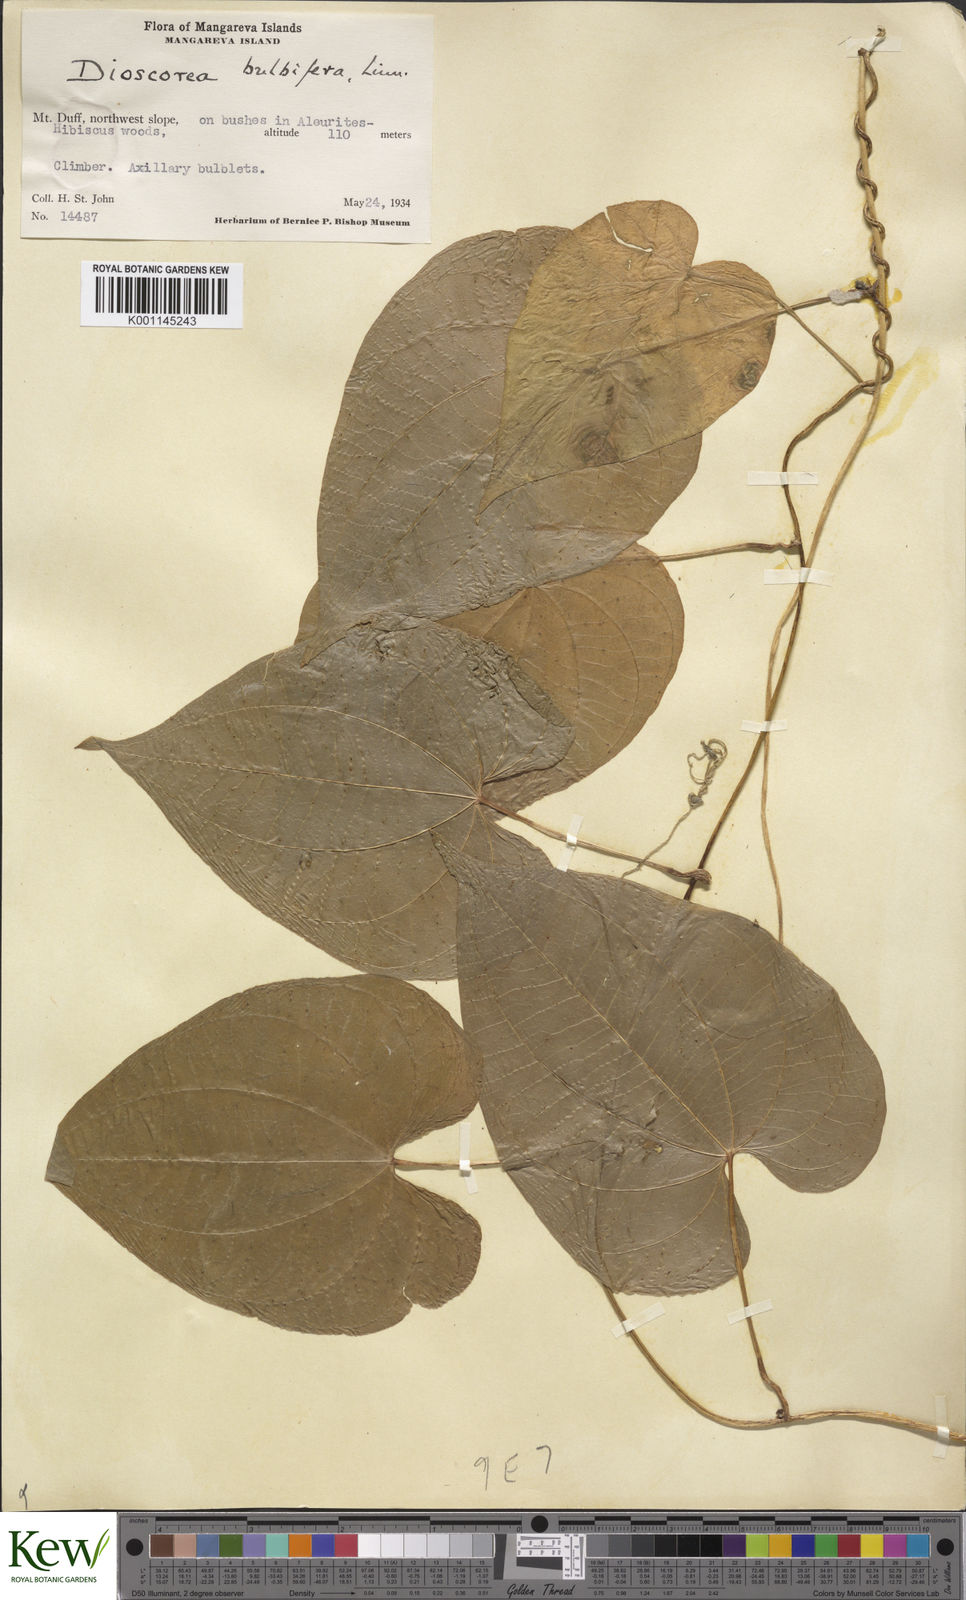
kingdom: Plantae
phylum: Tracheophyta
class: Liliopsida
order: Dioscoreales
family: Dioscoreaceae
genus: Dioscorea
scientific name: Dioscorea bulbifera
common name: Air yam
